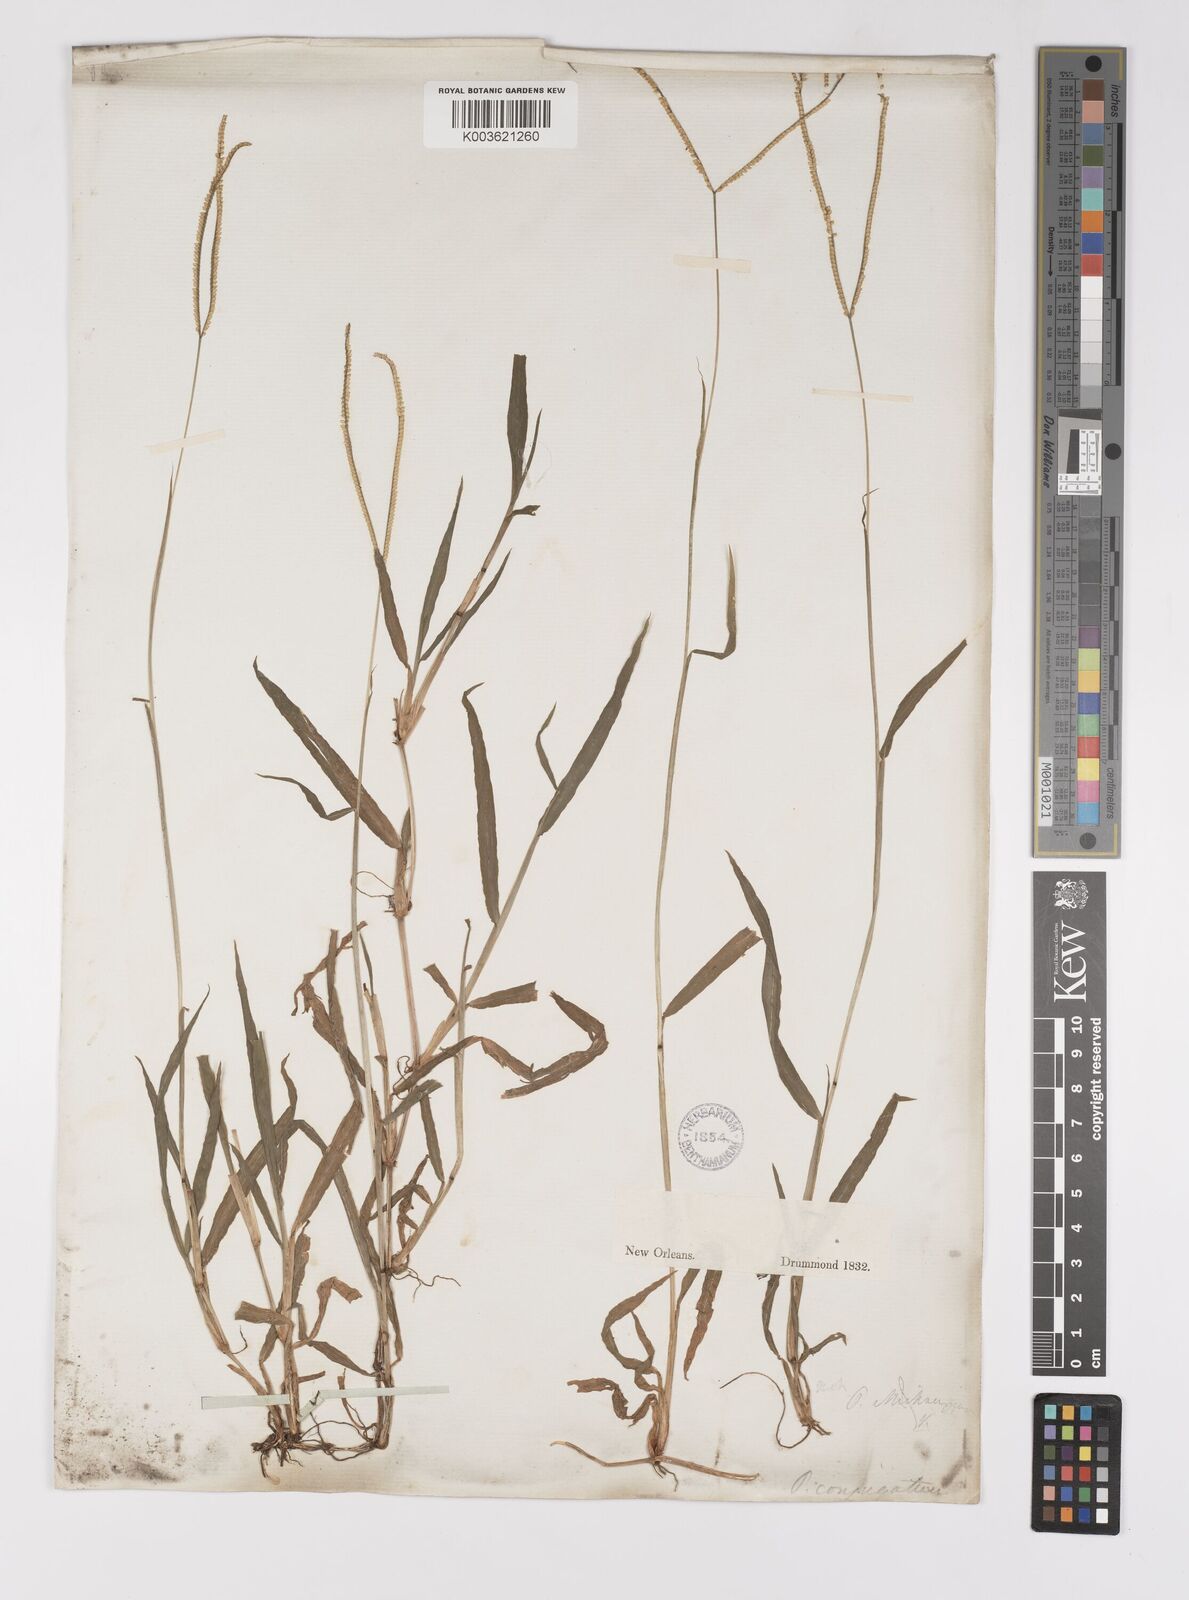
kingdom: Plantae
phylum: Tracheophyta
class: Liliopsida
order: Poales
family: Poaceae
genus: Paspalum
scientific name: Paspalum conjugatum
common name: Hilograss
